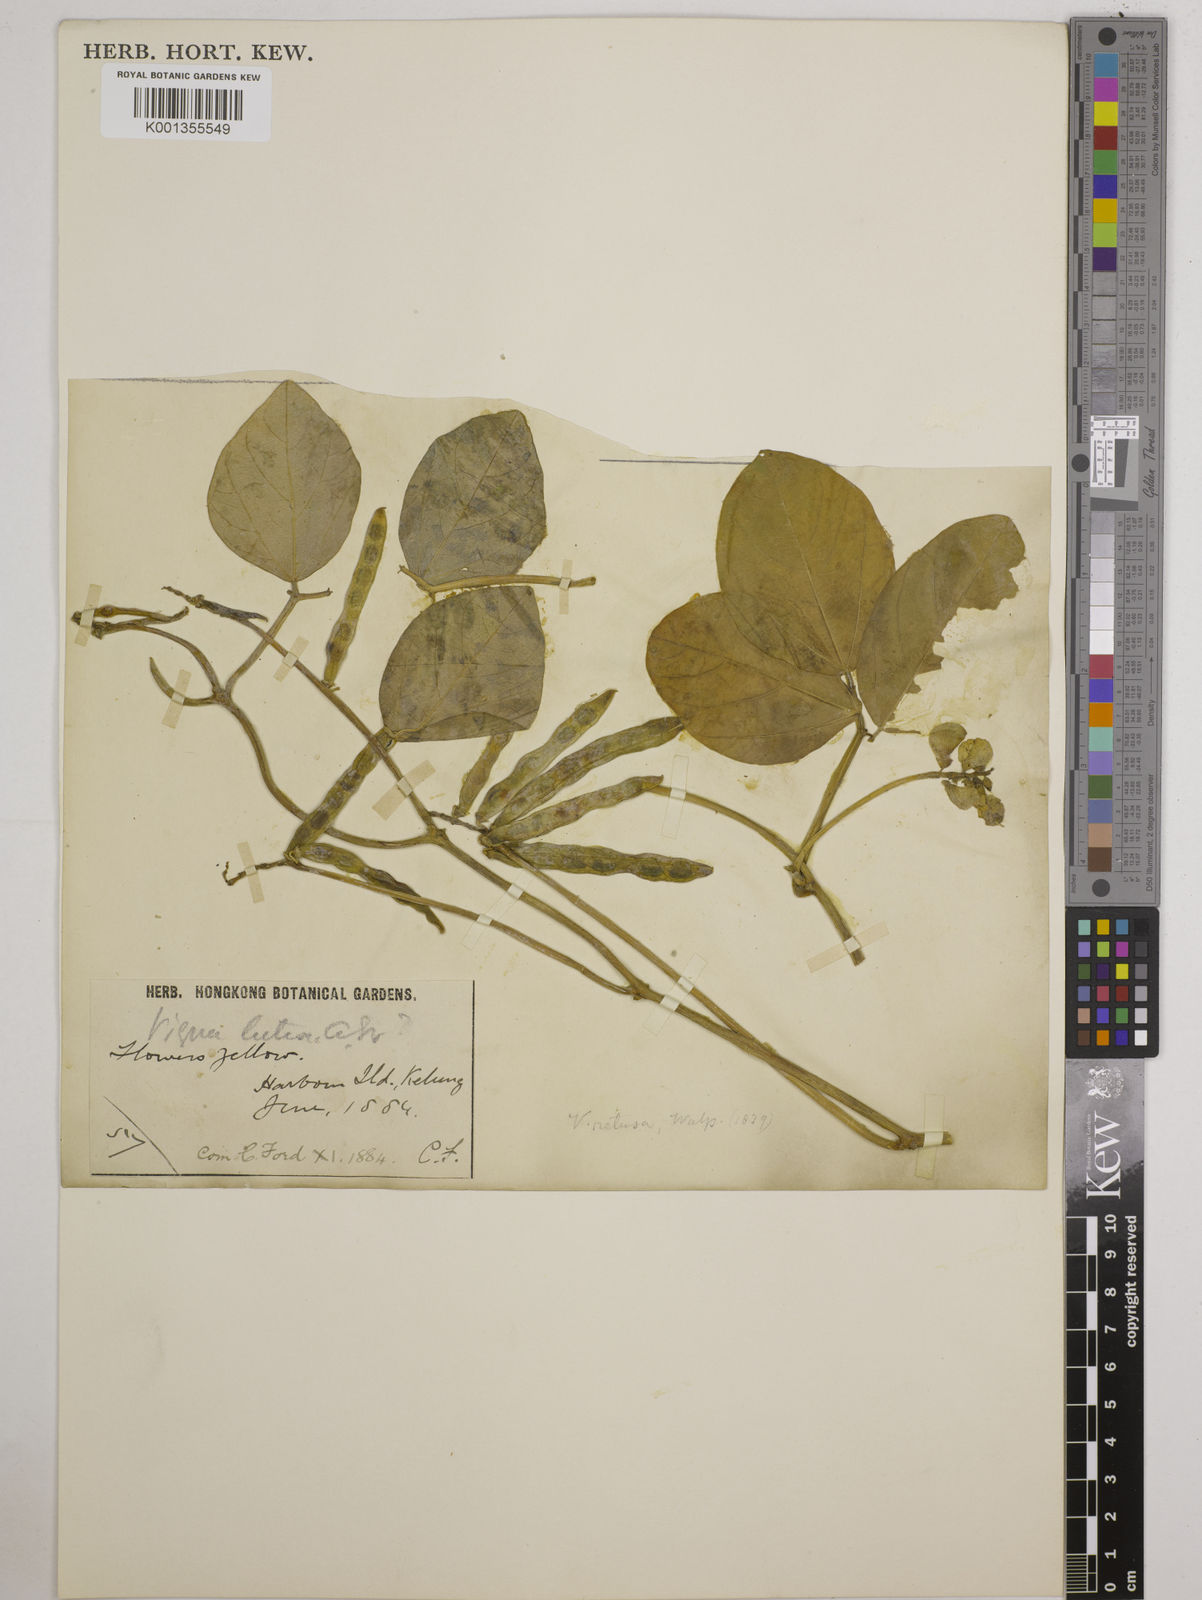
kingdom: Plantae
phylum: Tracheophyta
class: Magnoliopsida
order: Fabales
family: Fabaceae
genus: Vigna
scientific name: Vigna marina
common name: Dune-bean
